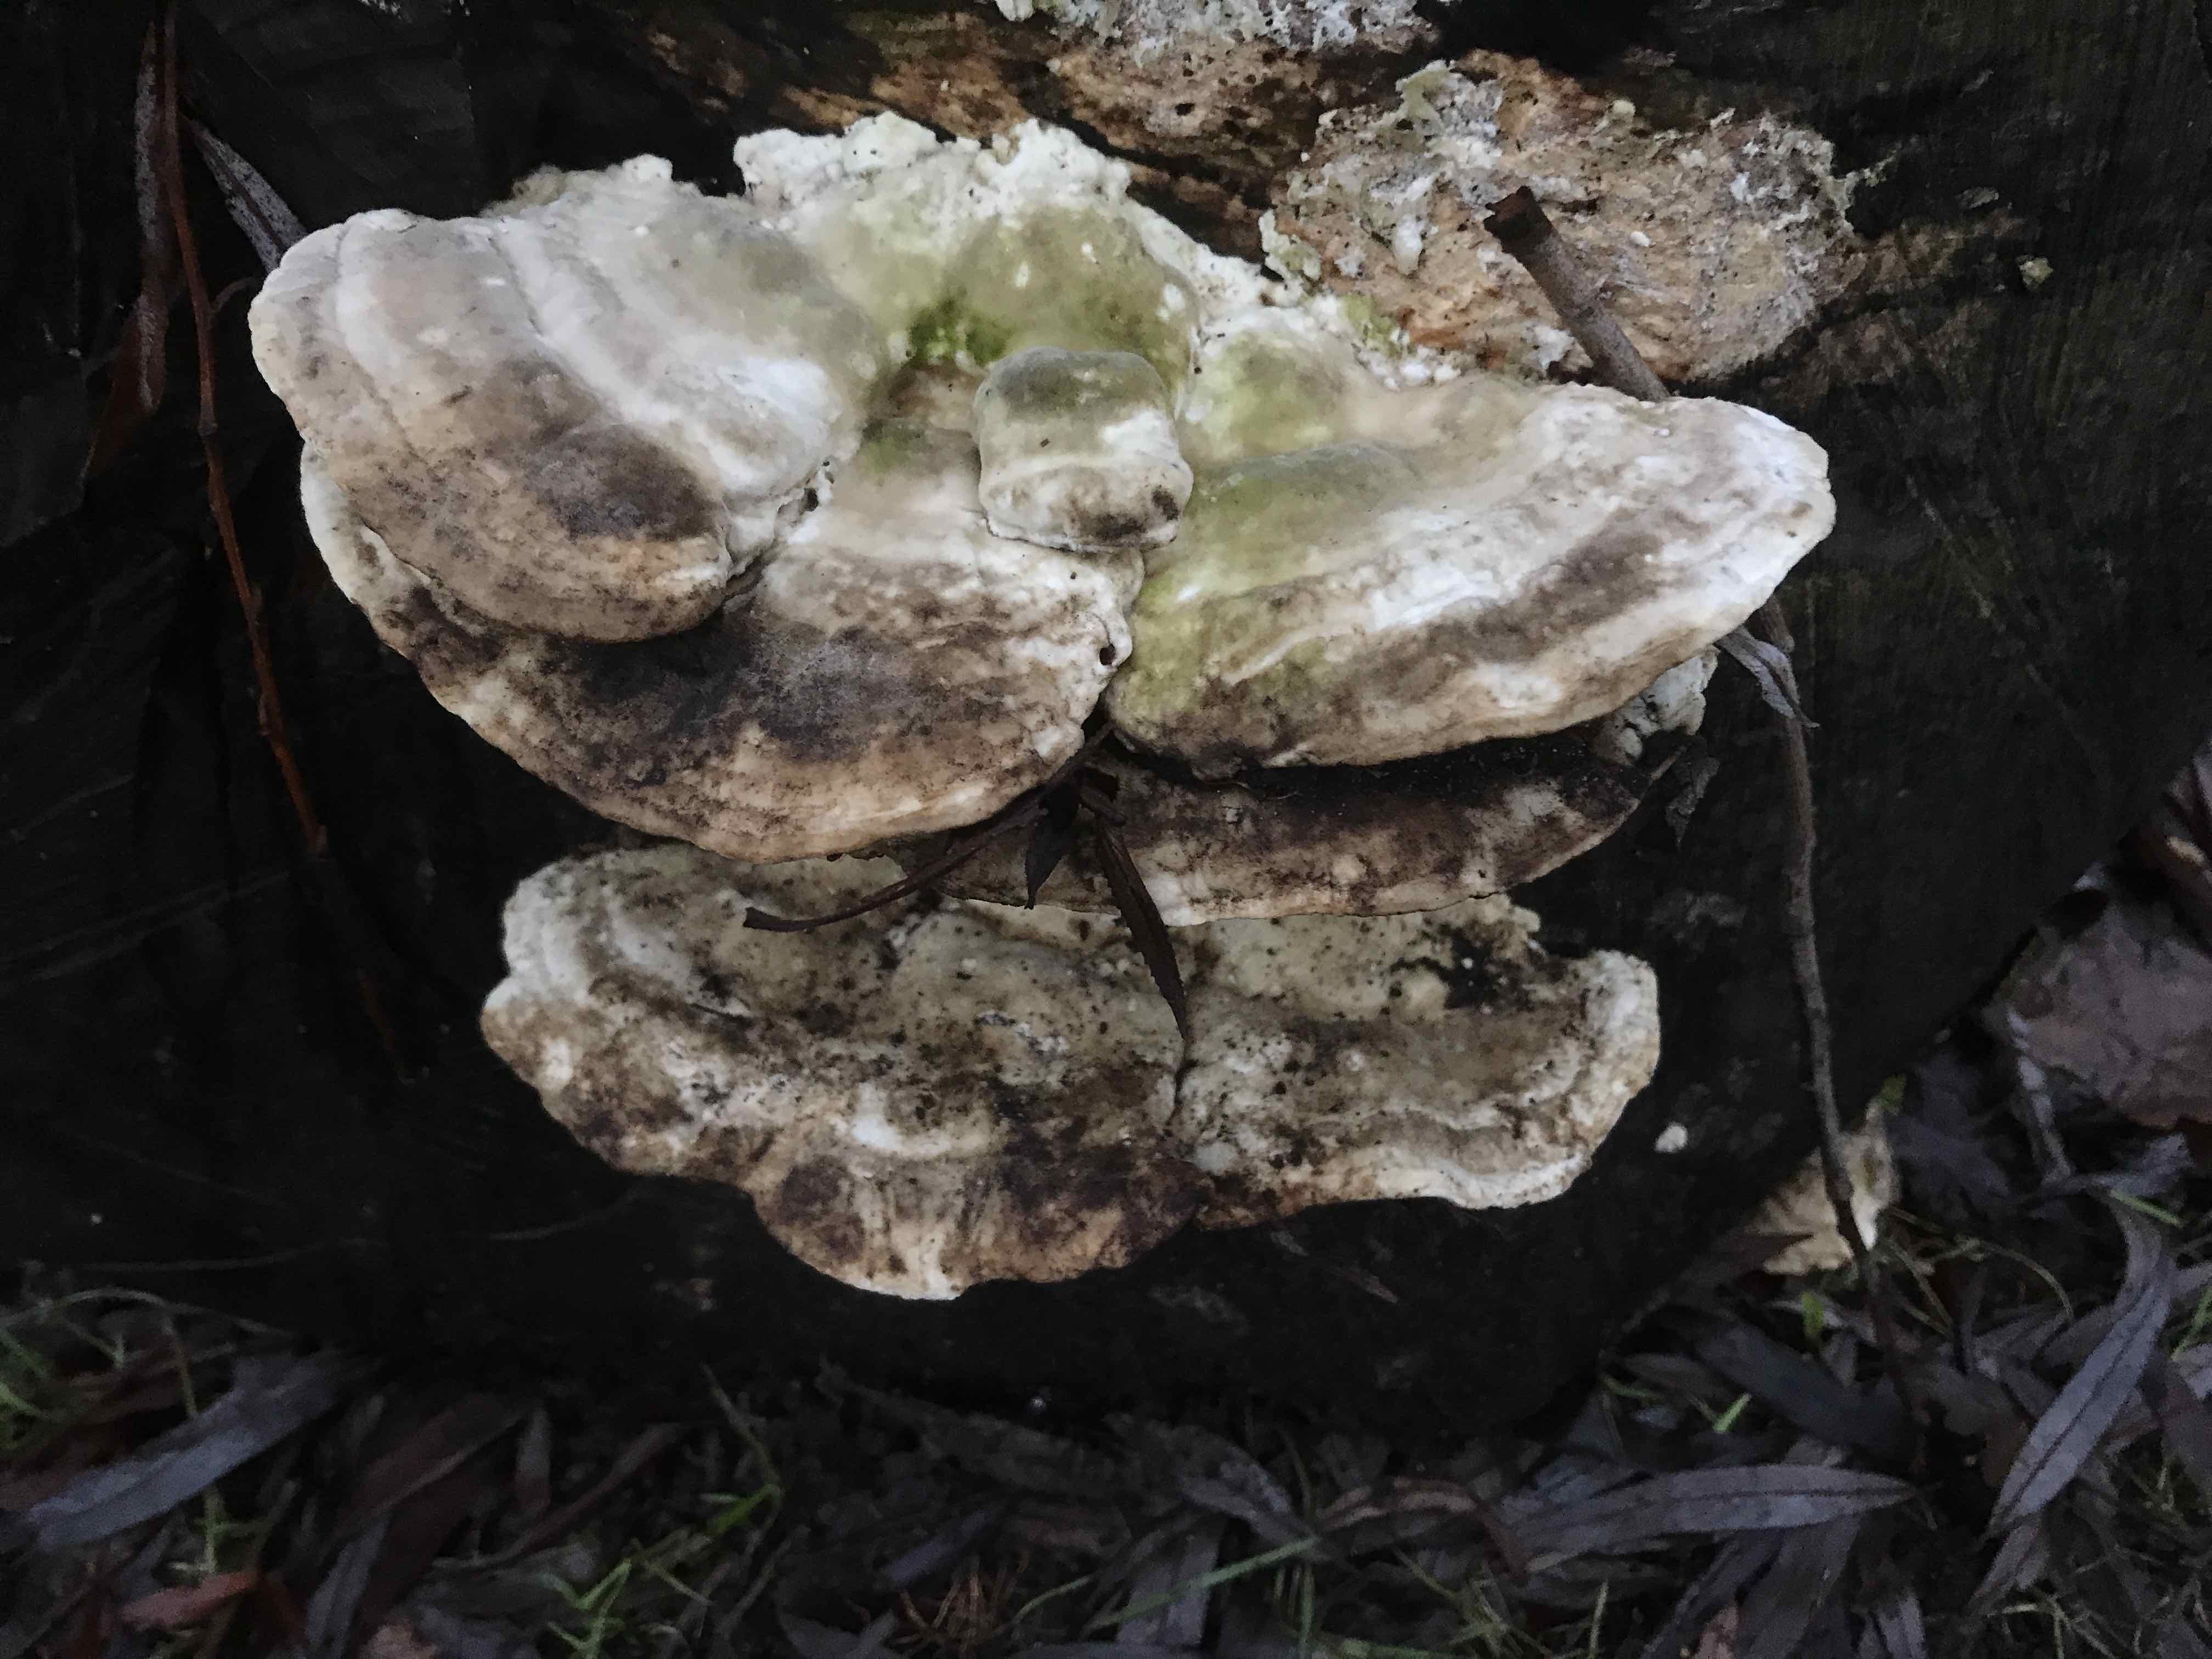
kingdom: Fungi
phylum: Basidiomycota
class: Agaricomycetes
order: Polyporales
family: Polyporaceae
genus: Trametes
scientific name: Trametes gibbosa
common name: puklet læderporesvamp
